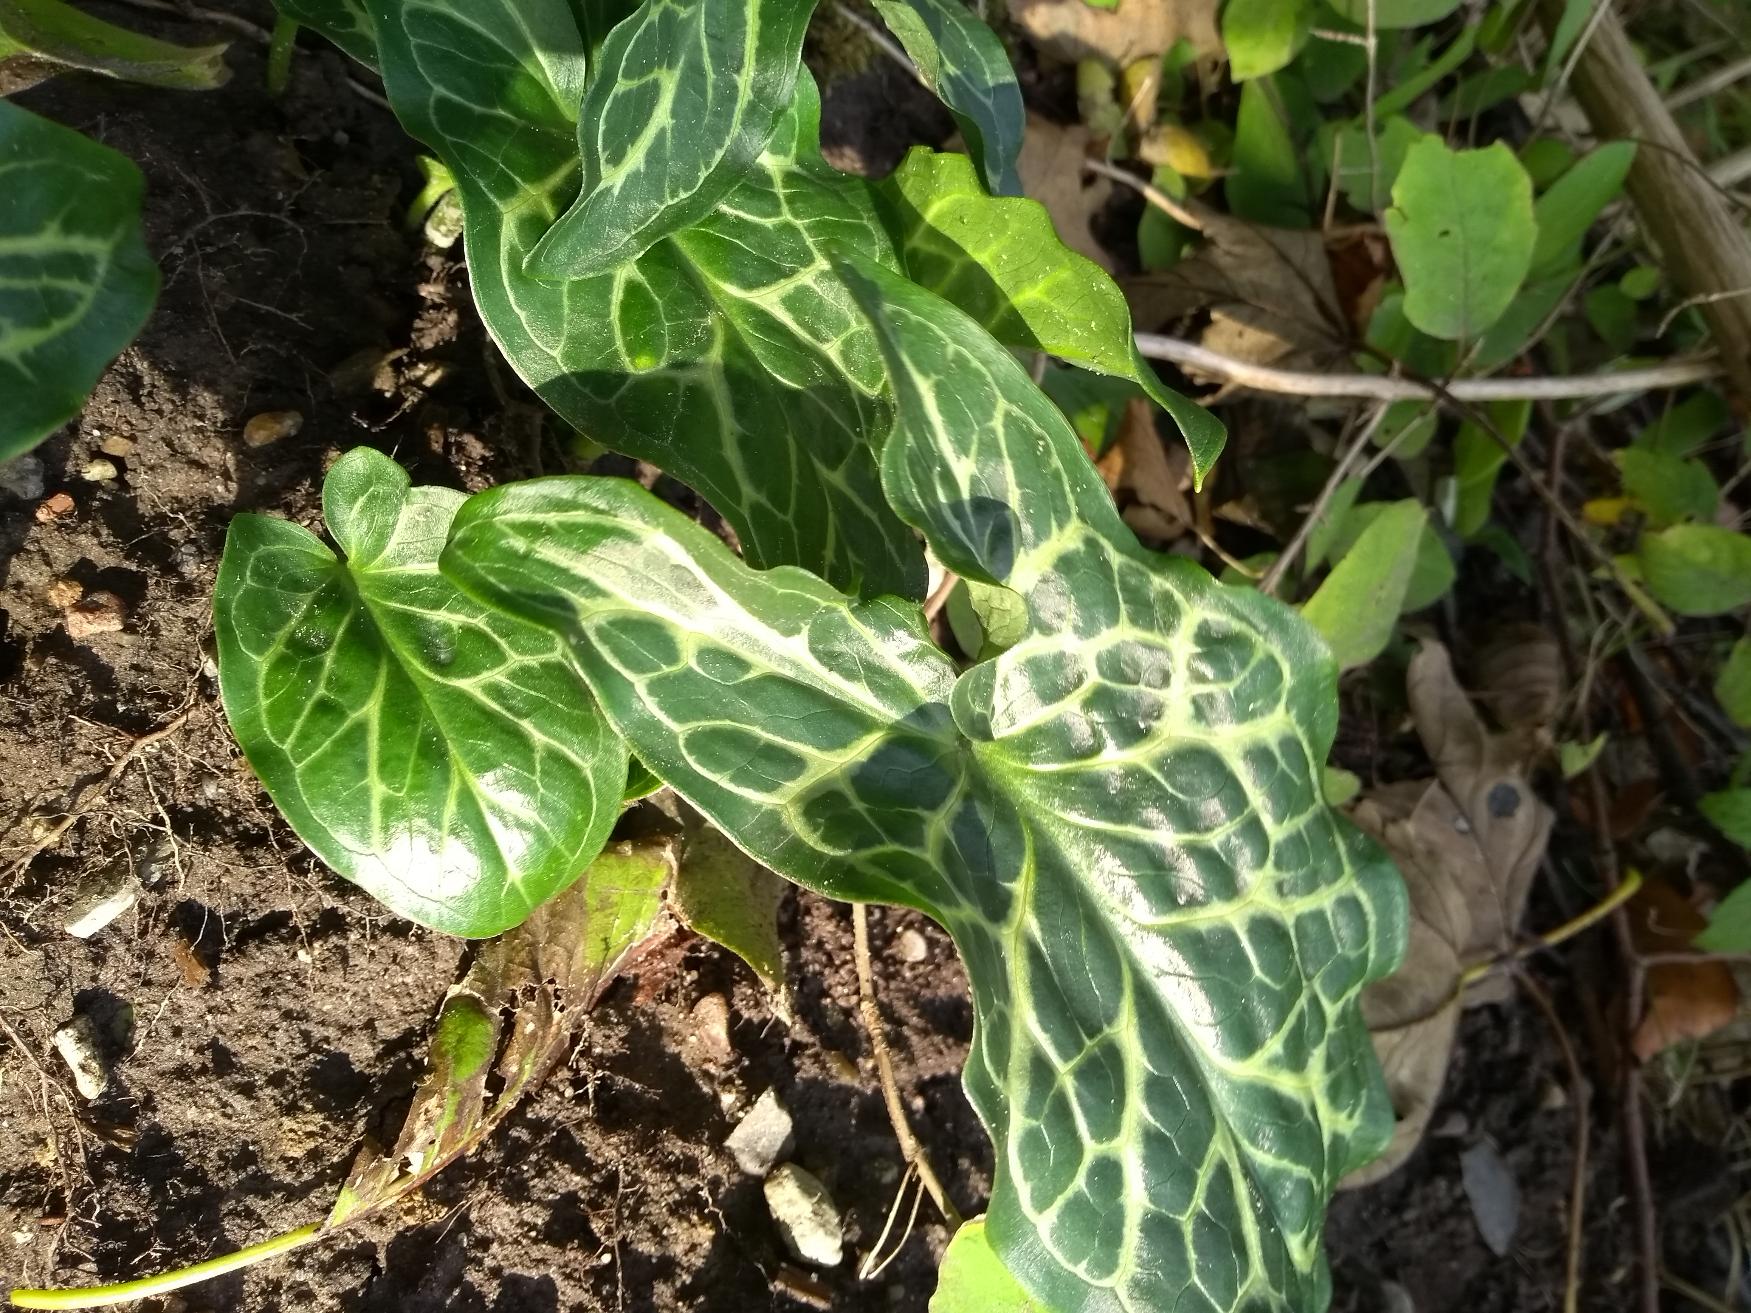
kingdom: Plantae
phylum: Tracheophyta
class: Liliopsida
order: Alismatales
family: Araceae
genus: Arum
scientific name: Arum italicum
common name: Italiensk arum
